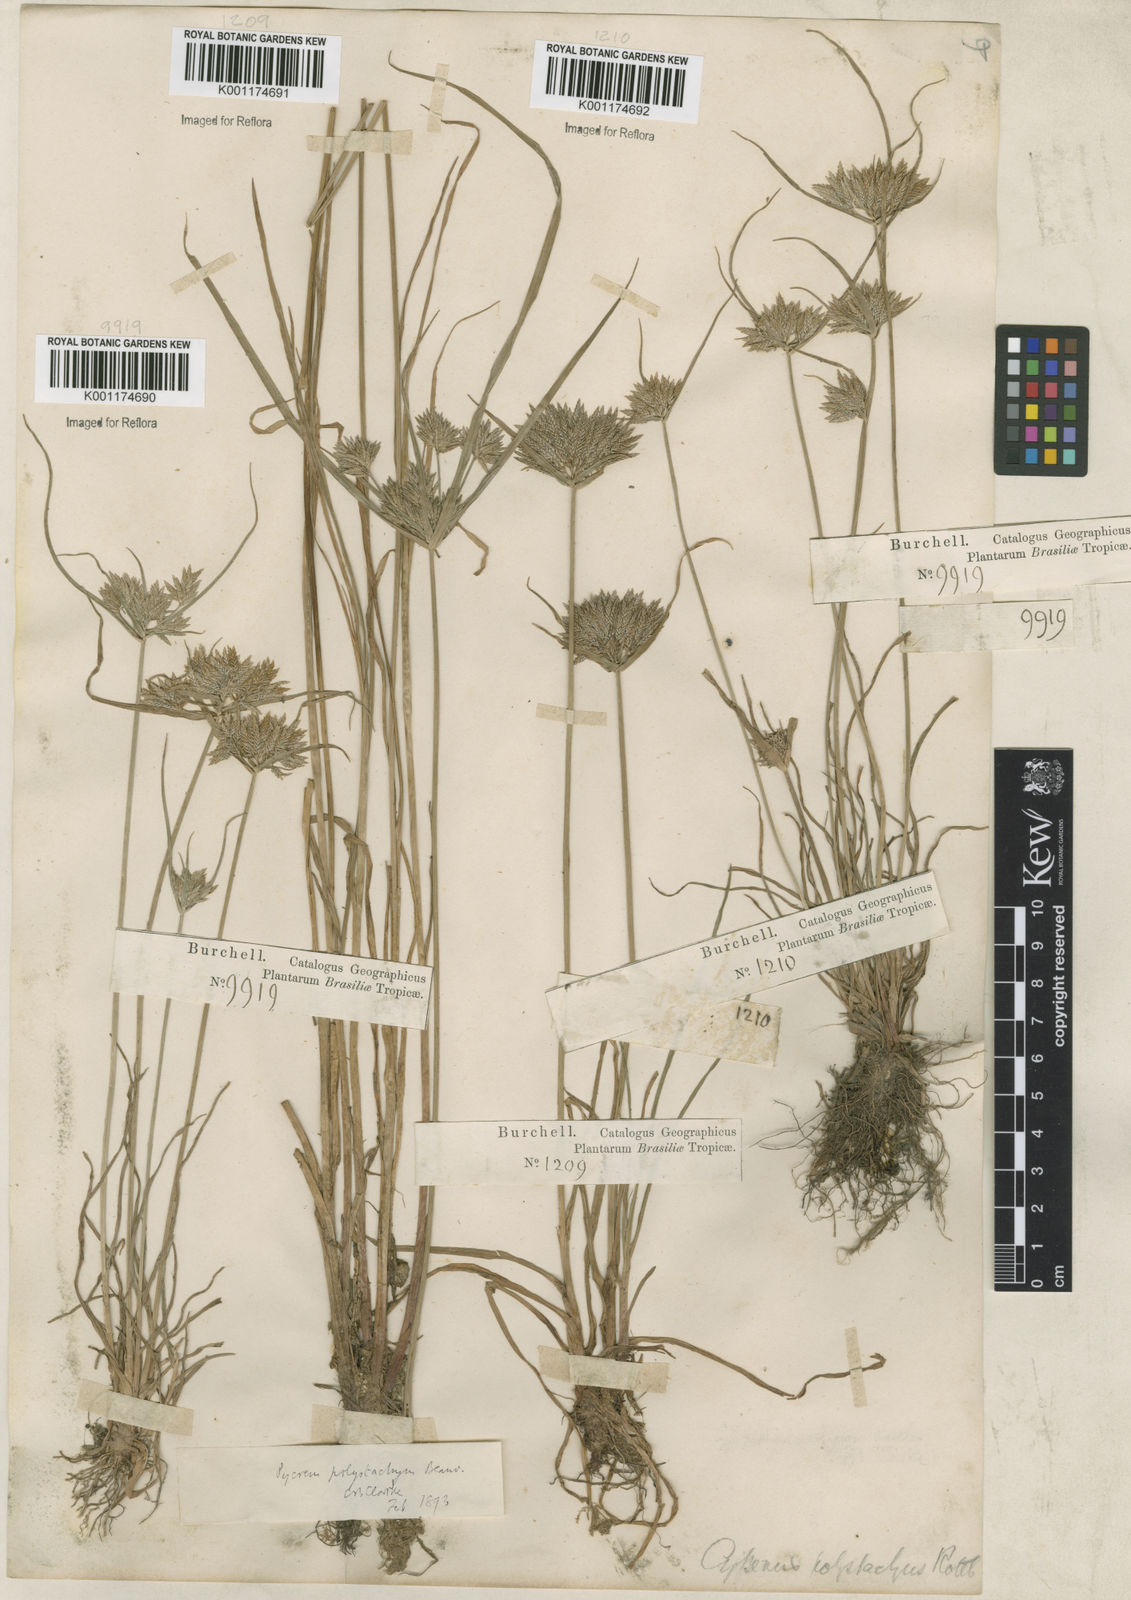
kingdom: Plantae
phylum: Tracheophyta
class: Liliopsida
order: Poales
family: Cyperaceae
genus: Cyperus
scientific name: Cyperus polystachyos
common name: Bunchy flat sedge
